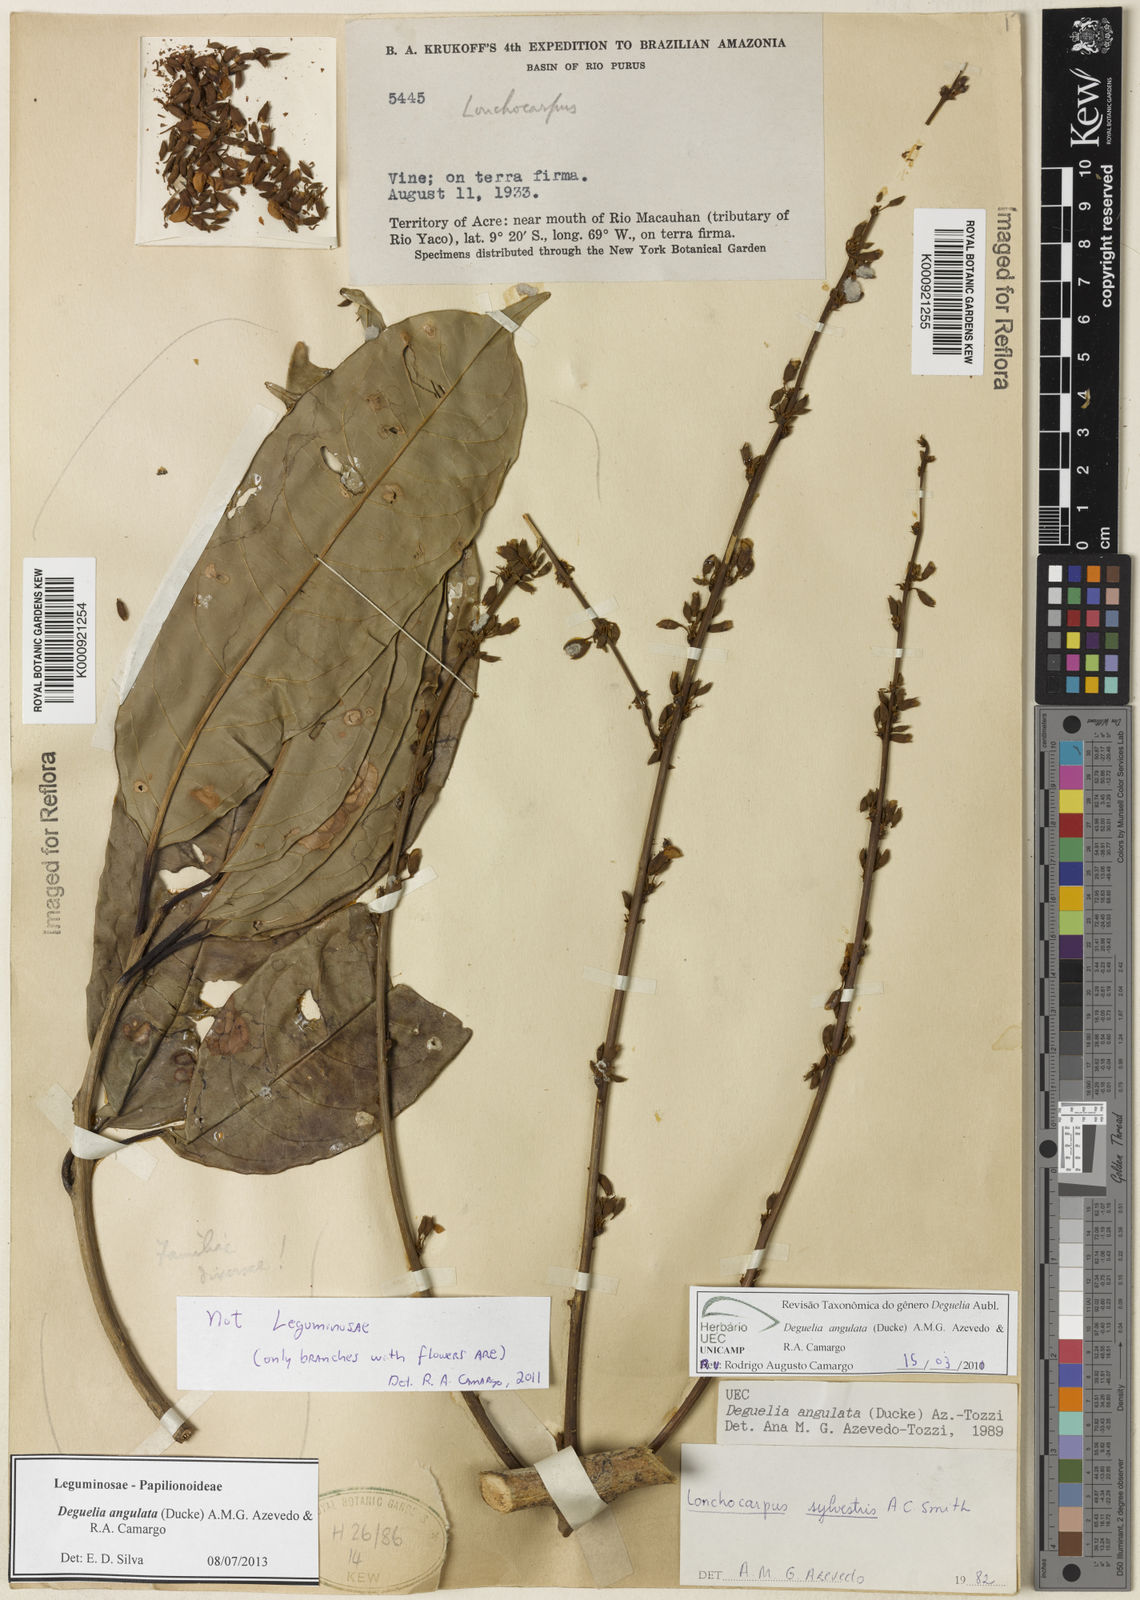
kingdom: Plantae
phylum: Tracheophyta
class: Magnoliopsida
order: Fabales
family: Fabaceae
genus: Deguelia
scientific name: Deguelia angulata
